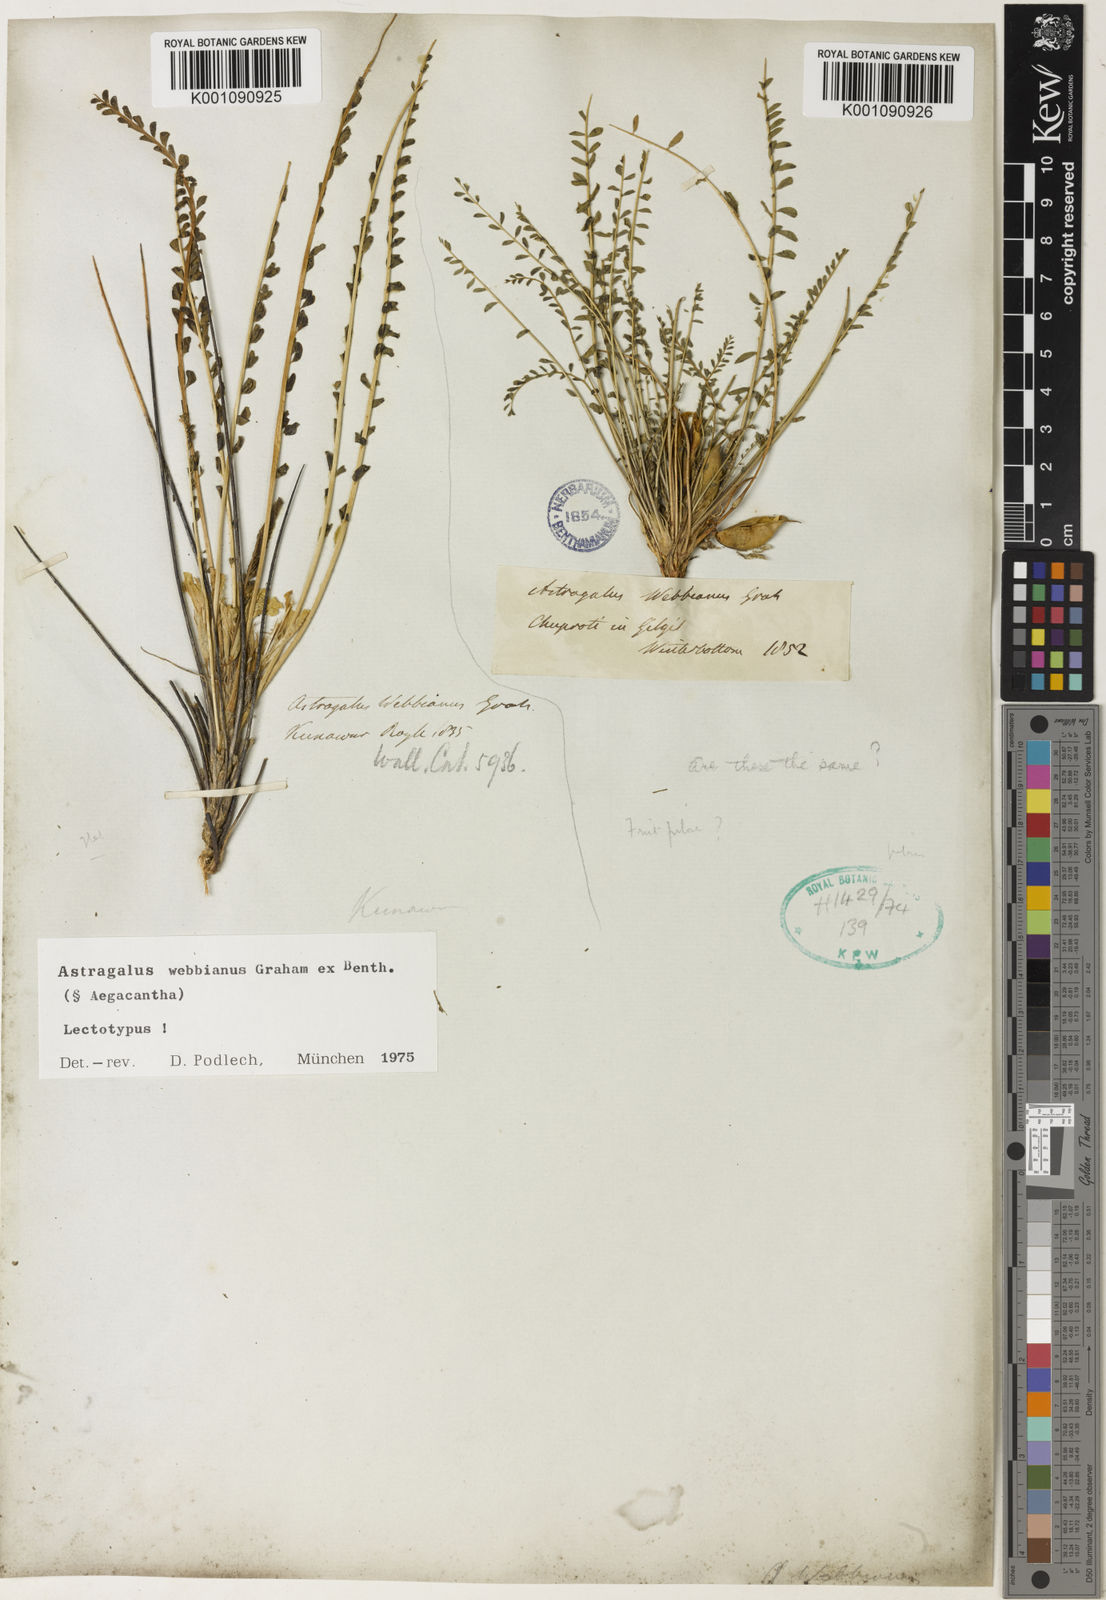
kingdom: Plantae
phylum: Tracheophyta
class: Magnoliopsida
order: Fabales
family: Fabaceae
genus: Astragalus
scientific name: Astragalus
